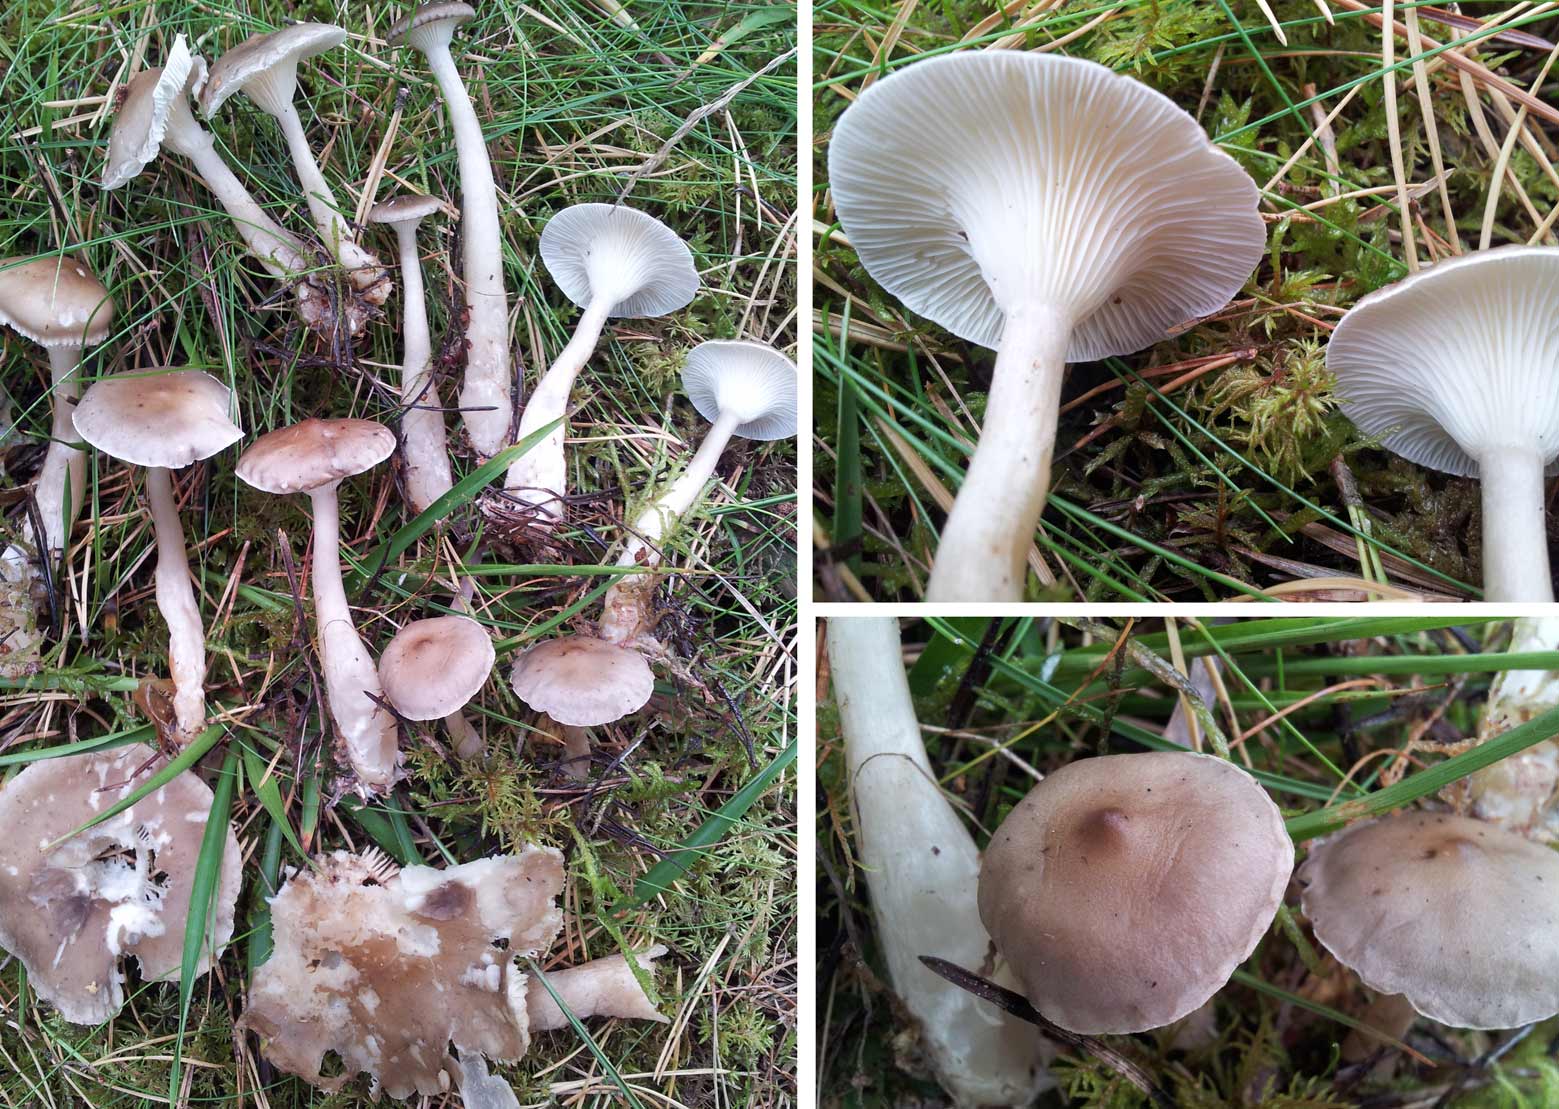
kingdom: Fungi
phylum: Basidiomycota
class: Agaricomycetes
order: Agaricales
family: Hygrophoraceae
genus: Ampulloclitocybe
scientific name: Ampulloclitocybe clavipes
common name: køllefod
